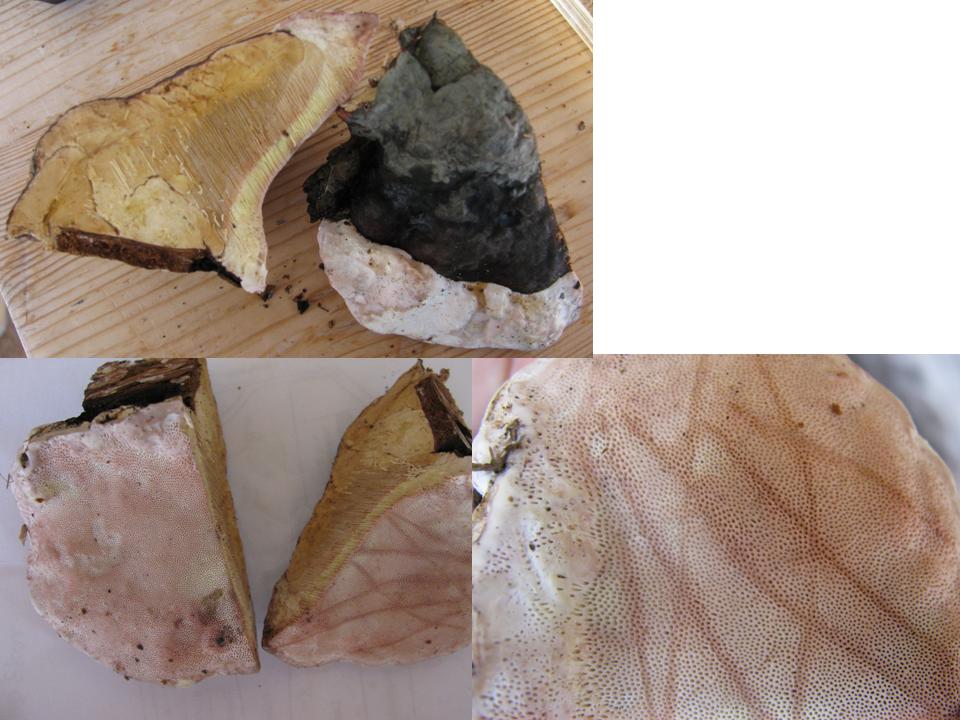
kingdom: Fungi
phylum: Basidiomycota
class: Agaricomycetes
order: Polyporales
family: Fomitopsidaceae
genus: Fomitopsis
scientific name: Fomitopsis pinicola
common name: randbæltet hovporesvamp
